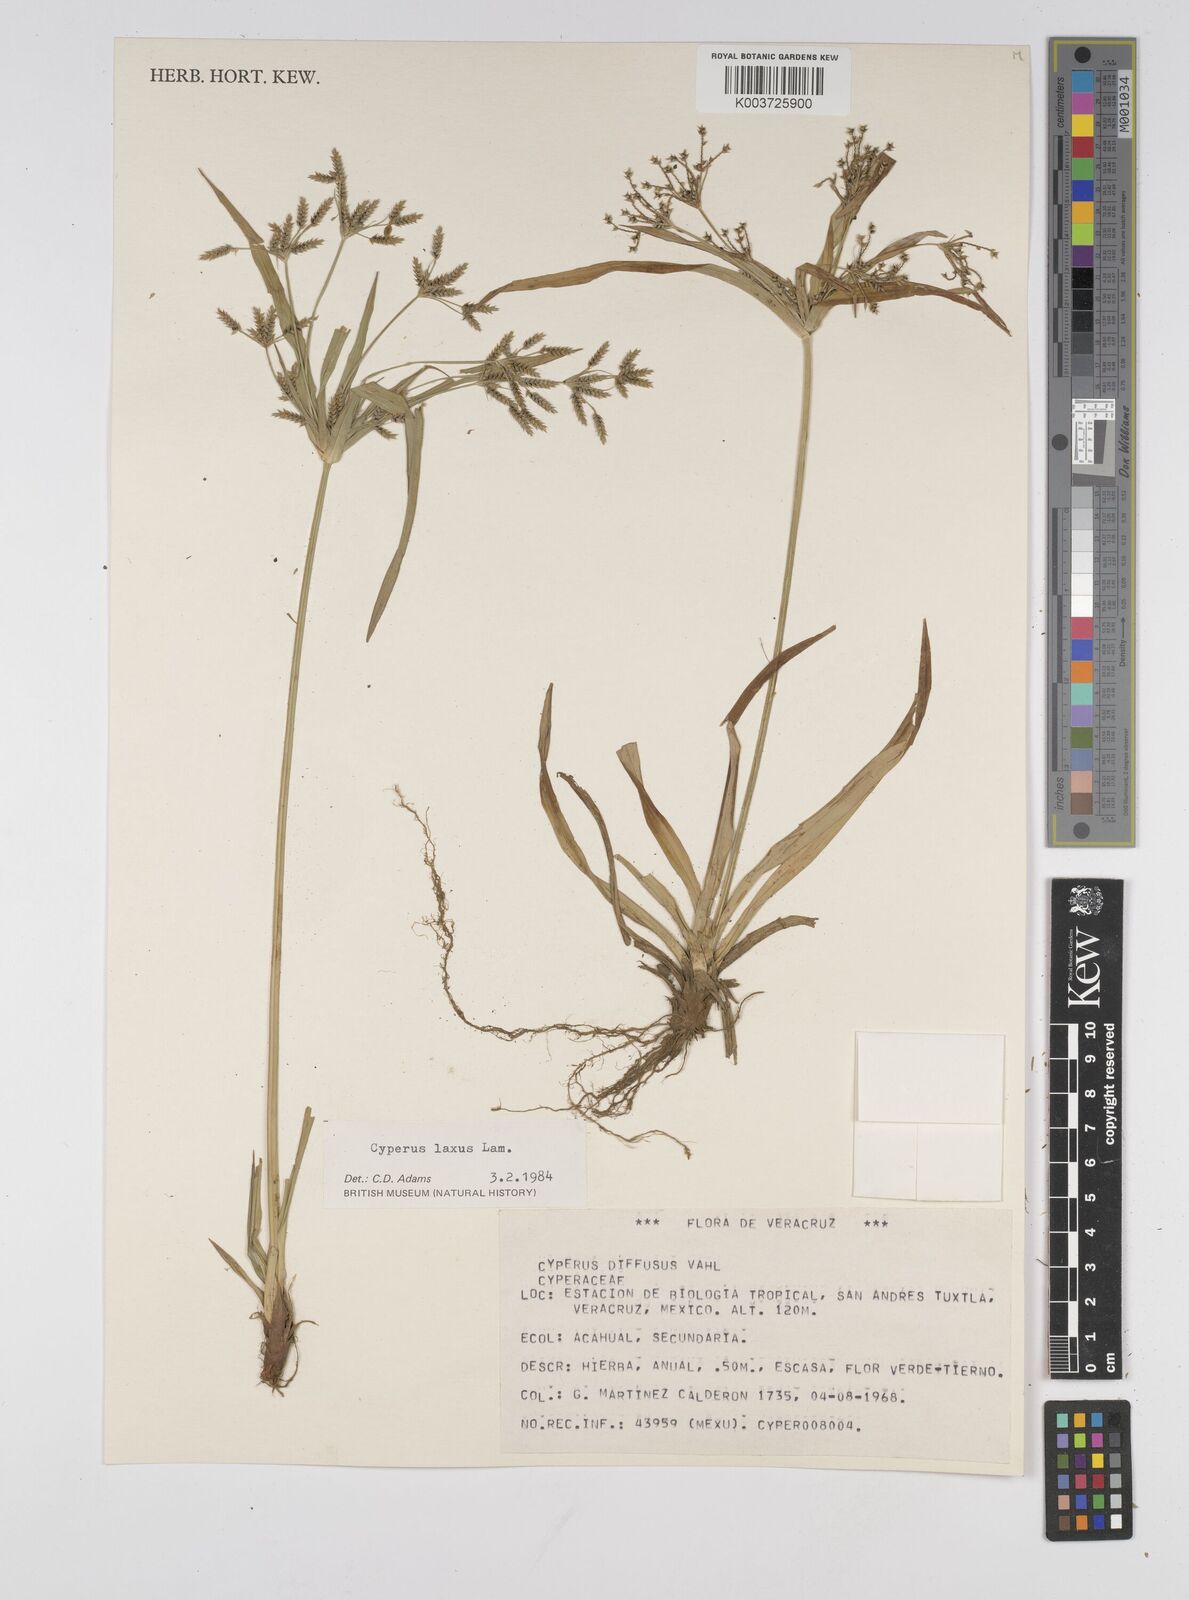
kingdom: Plantae
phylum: Tracheophyta
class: Liliopsida
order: Poales
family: Cyperaceae
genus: Cyperus
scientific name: Cyperus diffusus
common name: Dwarf umbrella grass
